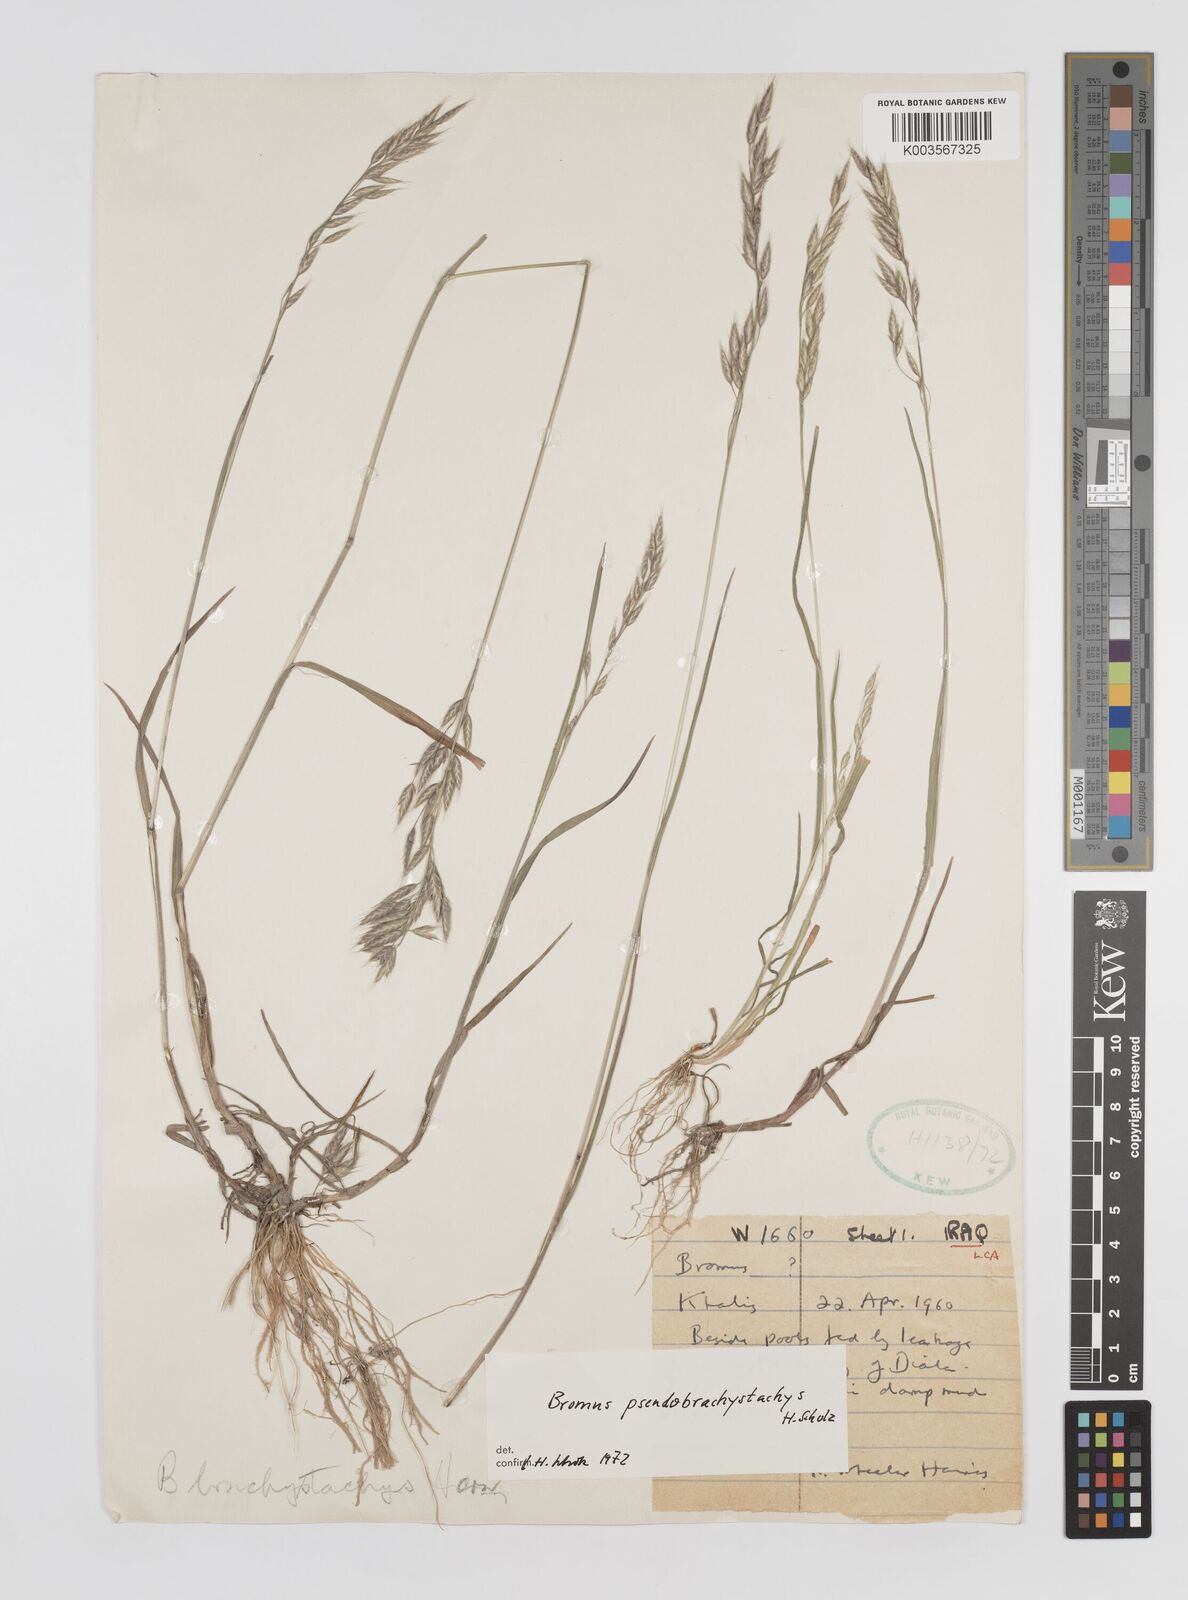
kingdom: Plantae
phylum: Tracheophyta
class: Liliopsida
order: Poales
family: Poaceae
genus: Bromus
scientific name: Bromus pseudobrachystachys
